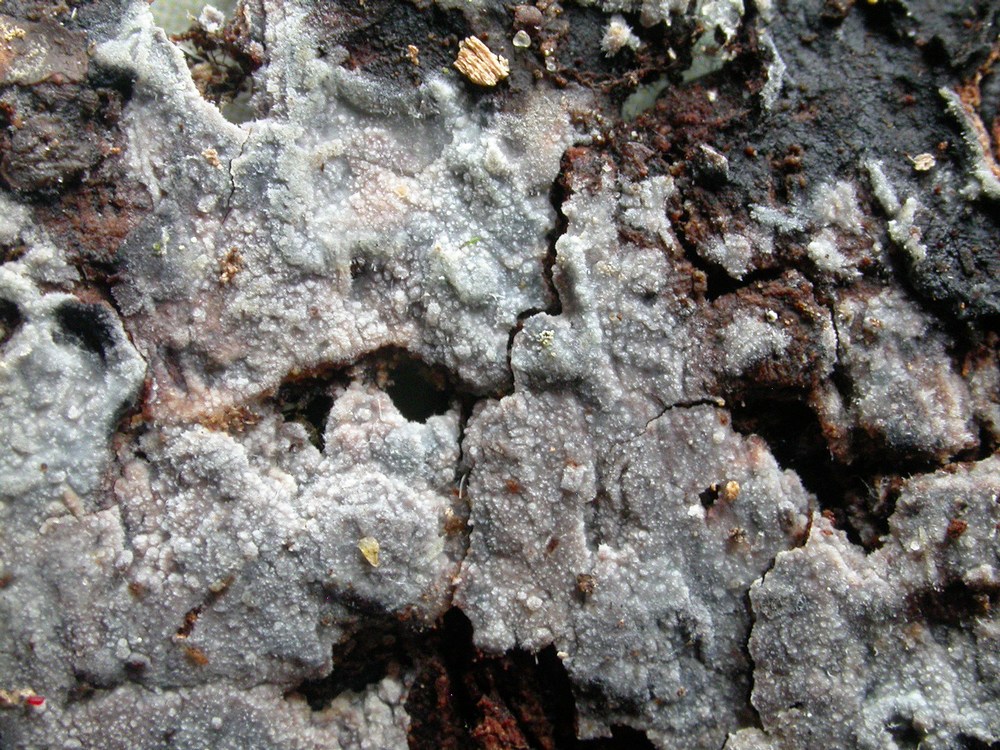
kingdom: Fungi
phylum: Basidiomycota
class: Agaricomycetes
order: Polyporales
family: Meruliaceae
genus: Scopuloides
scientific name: Scopuloides rimosa
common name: dughinde
